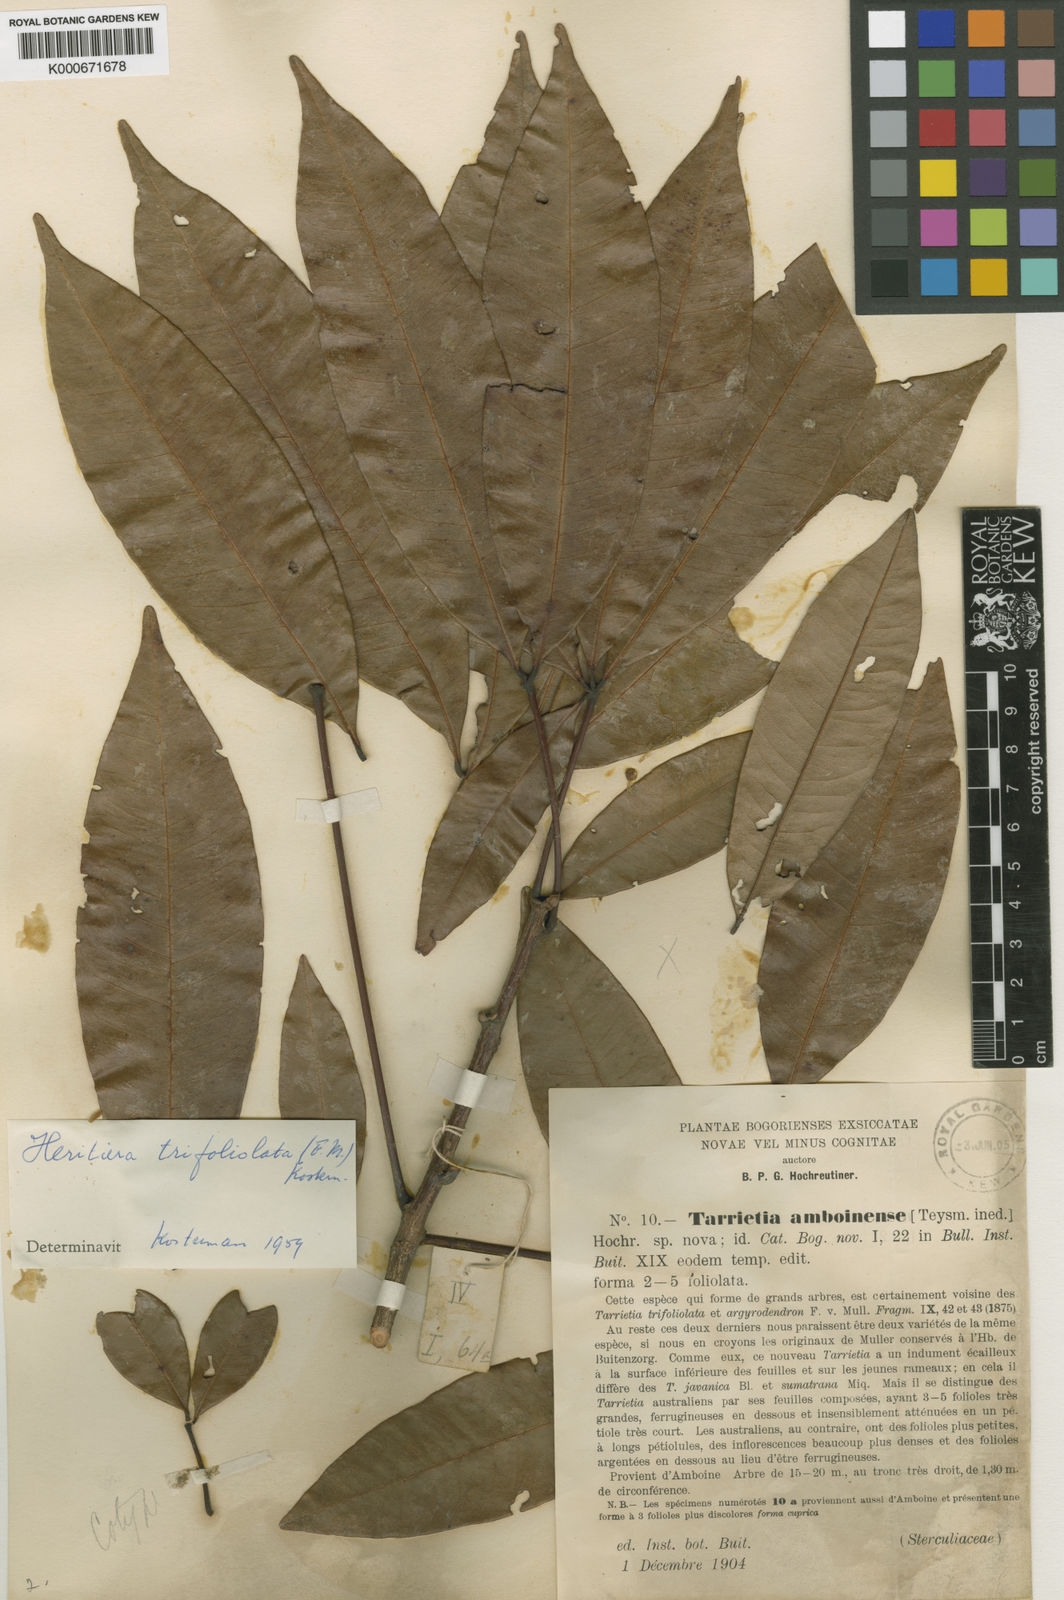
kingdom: Plantae
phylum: Tracheophyta
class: Magnoliopsida
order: Malvales
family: Malvaceae
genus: Argyrodendron
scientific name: Argyrodendron trifoliolatum
